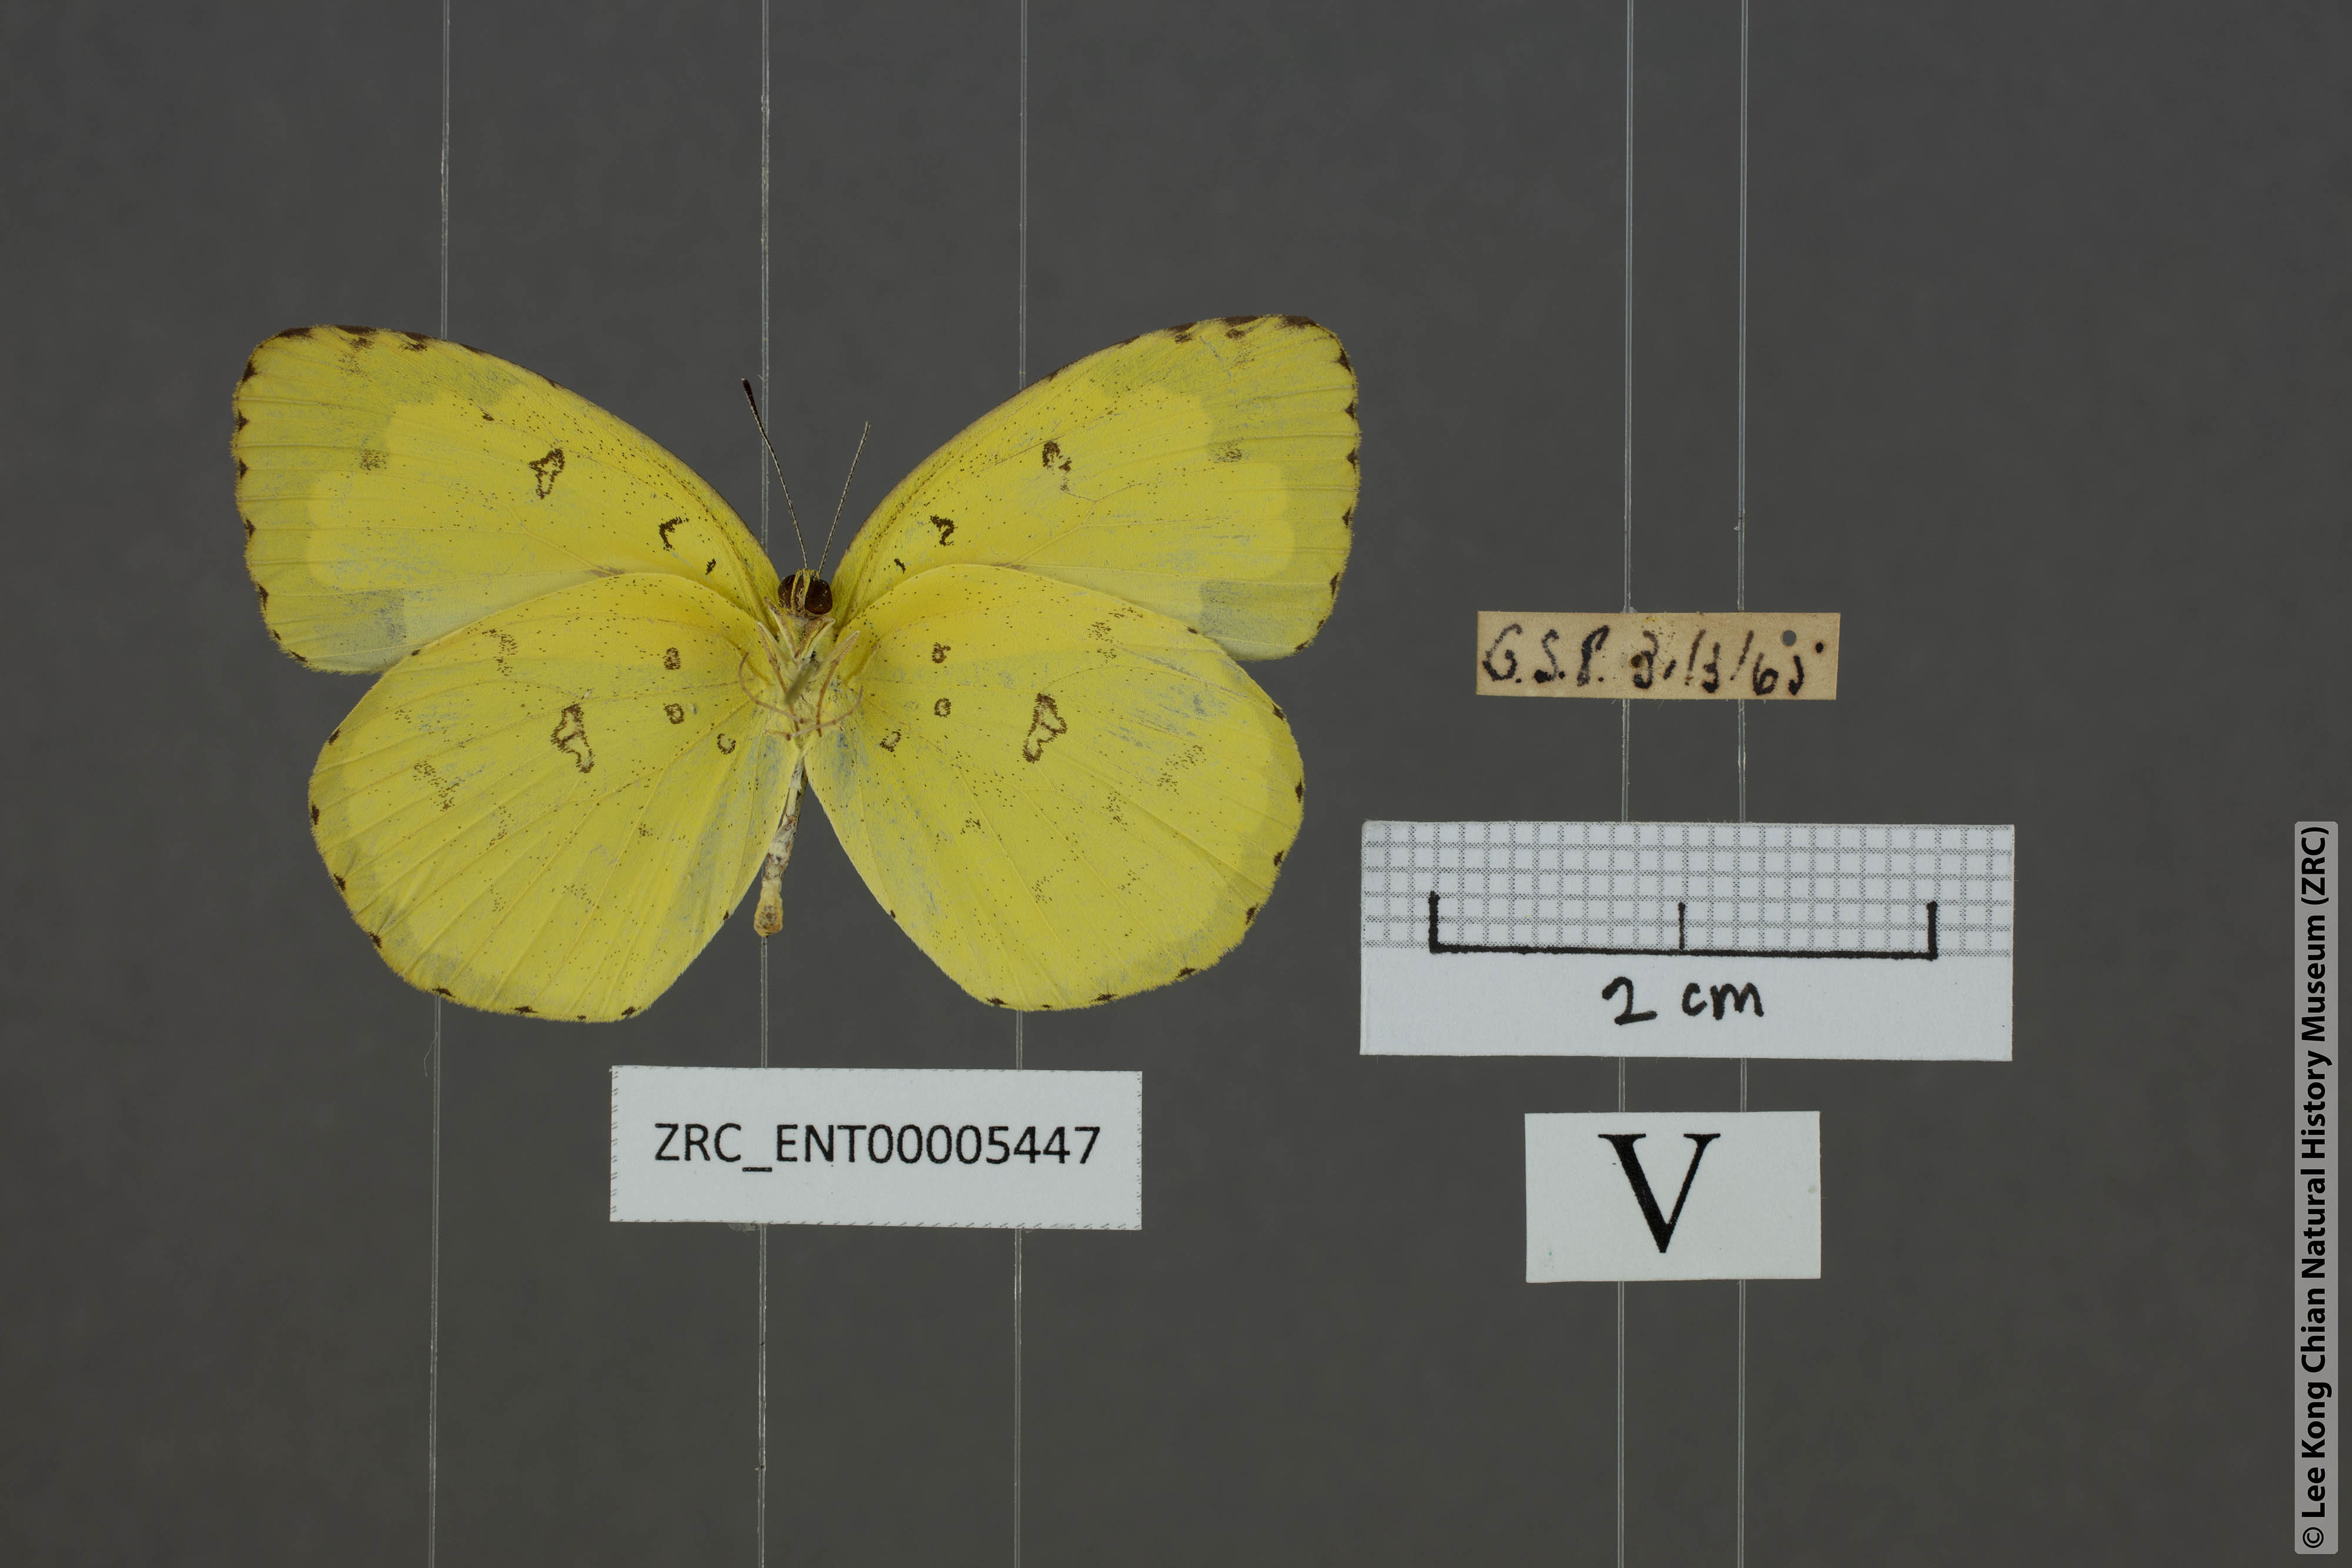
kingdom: Animalia
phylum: Arthropoda
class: Insecta
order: Lepidoptera
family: Pieridae
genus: Eurema
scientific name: Eurema hecabe
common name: Pale grass yellow
